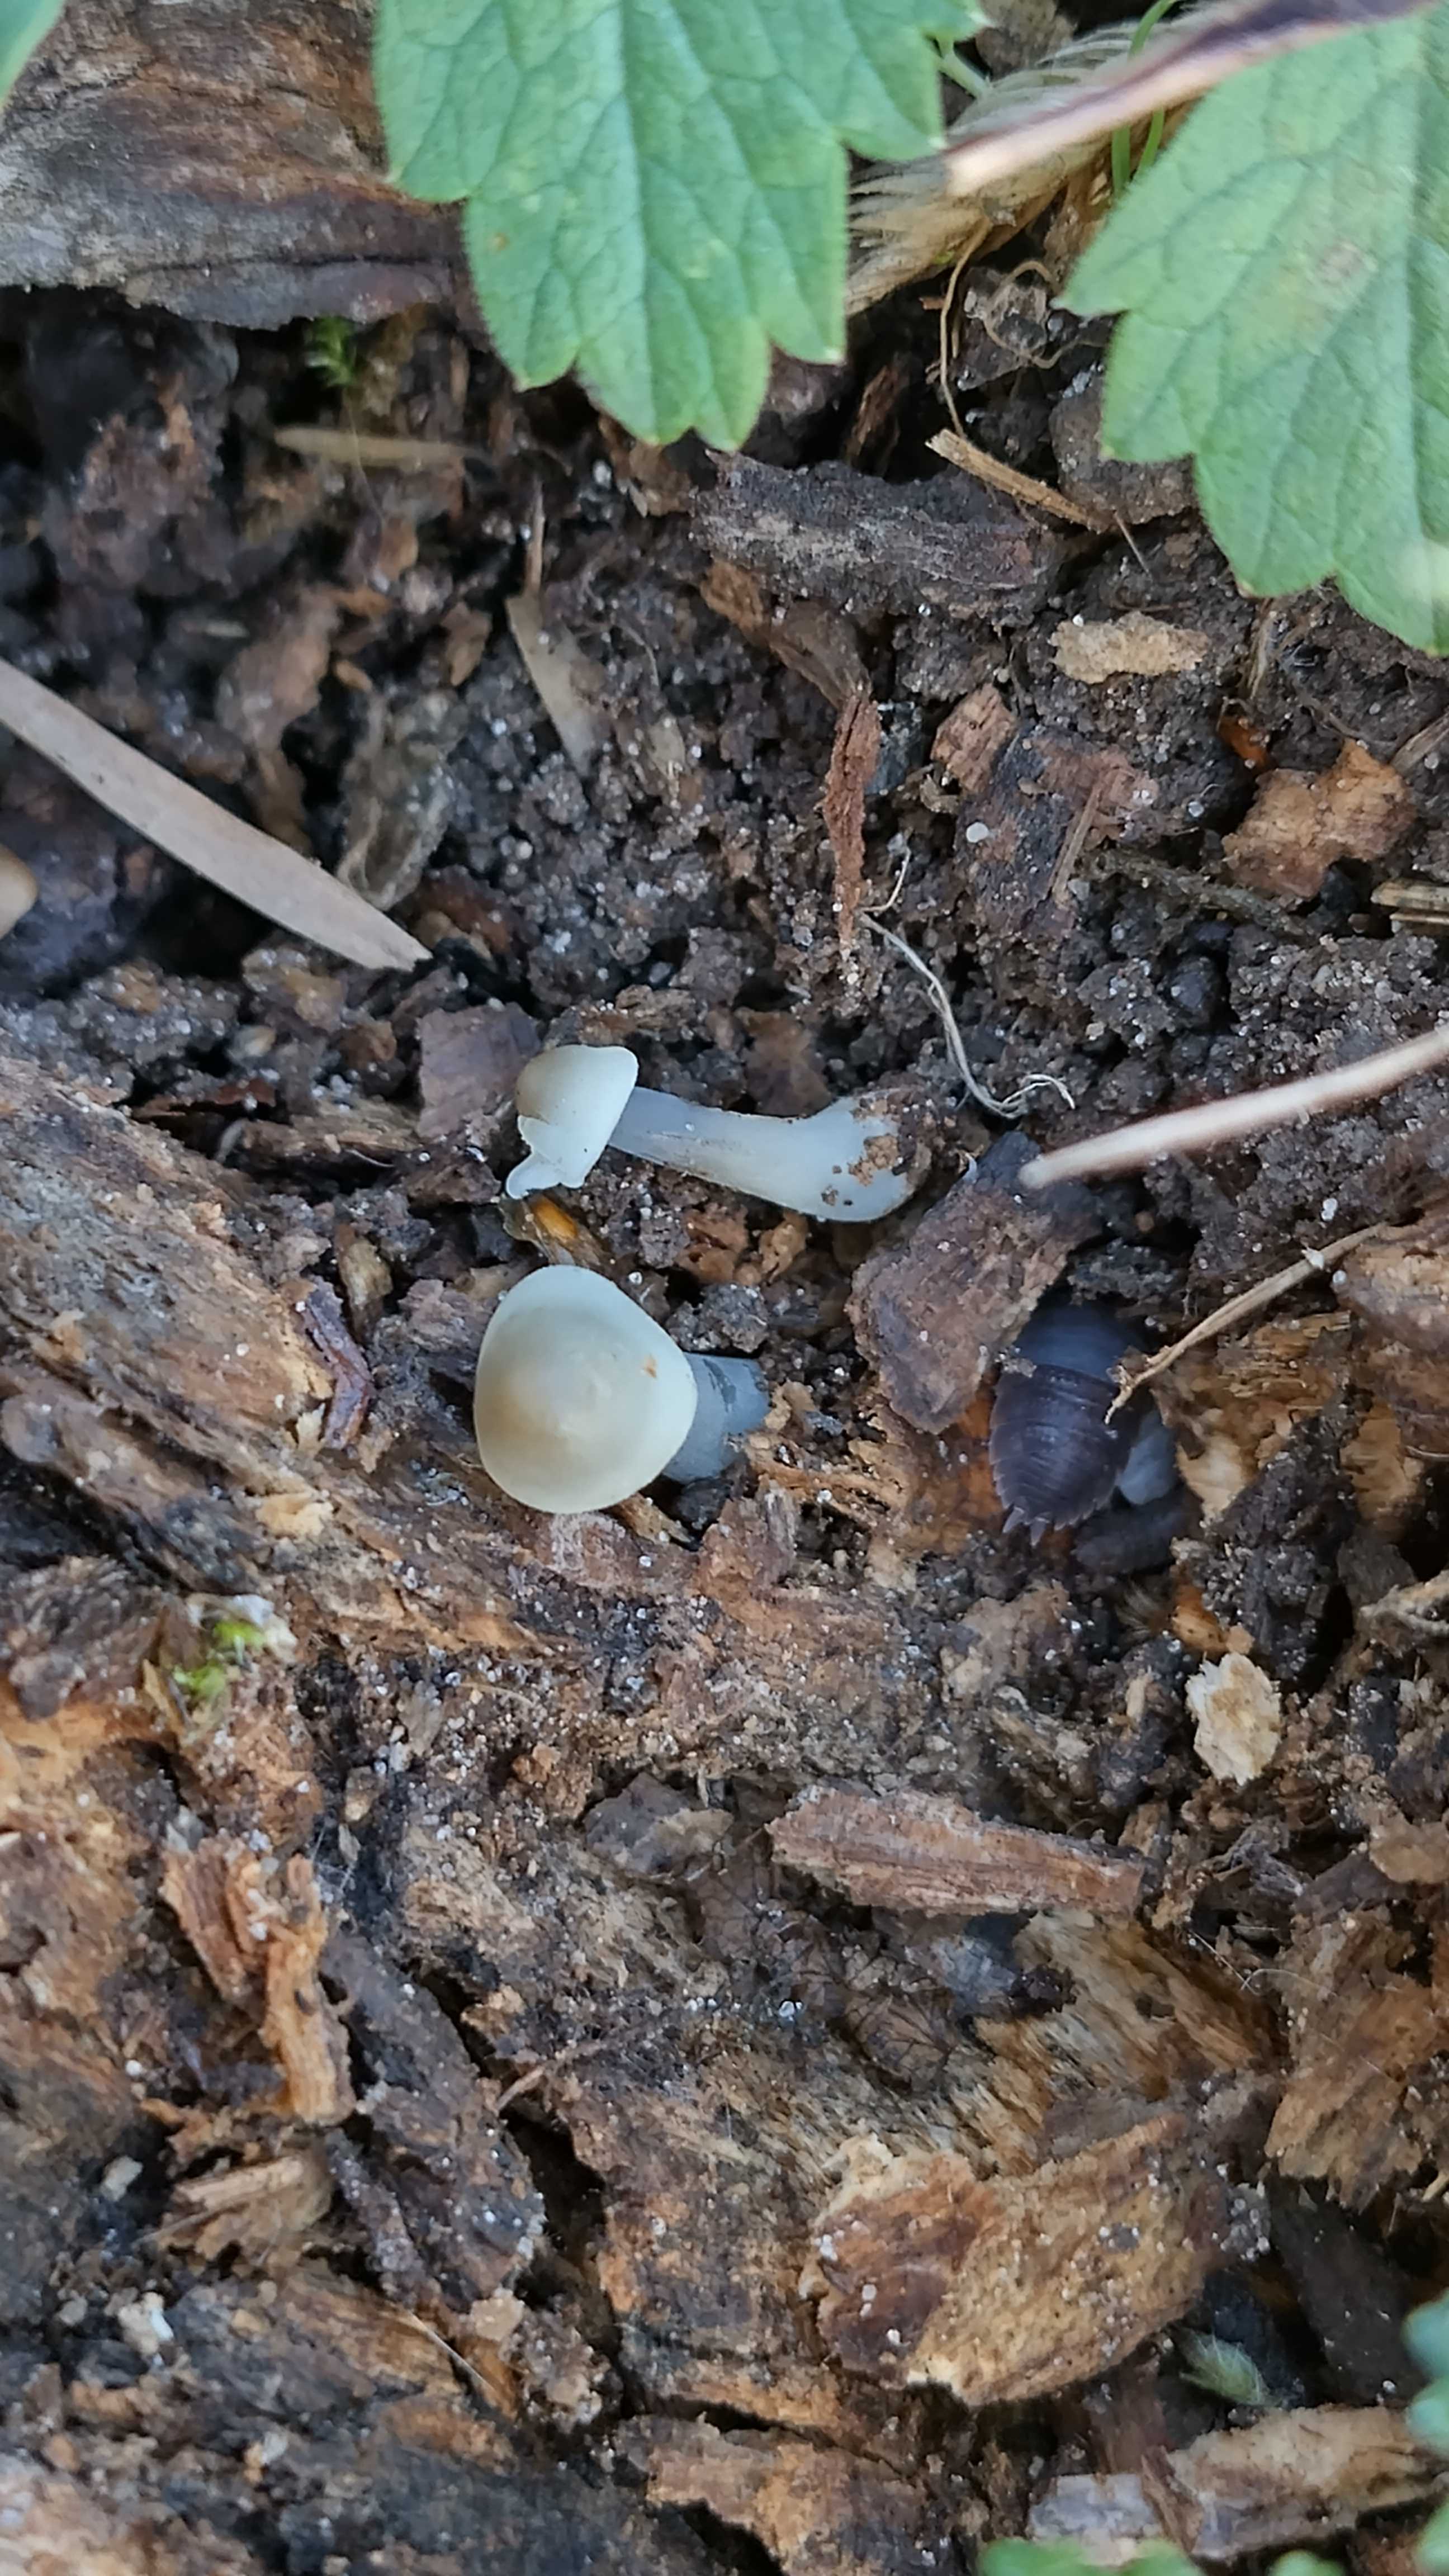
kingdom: Fungi
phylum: Basidiomycota
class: Agaricomycetes
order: Agaricales
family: Mycenaceae
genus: Mycena
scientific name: Mycena galericulata
